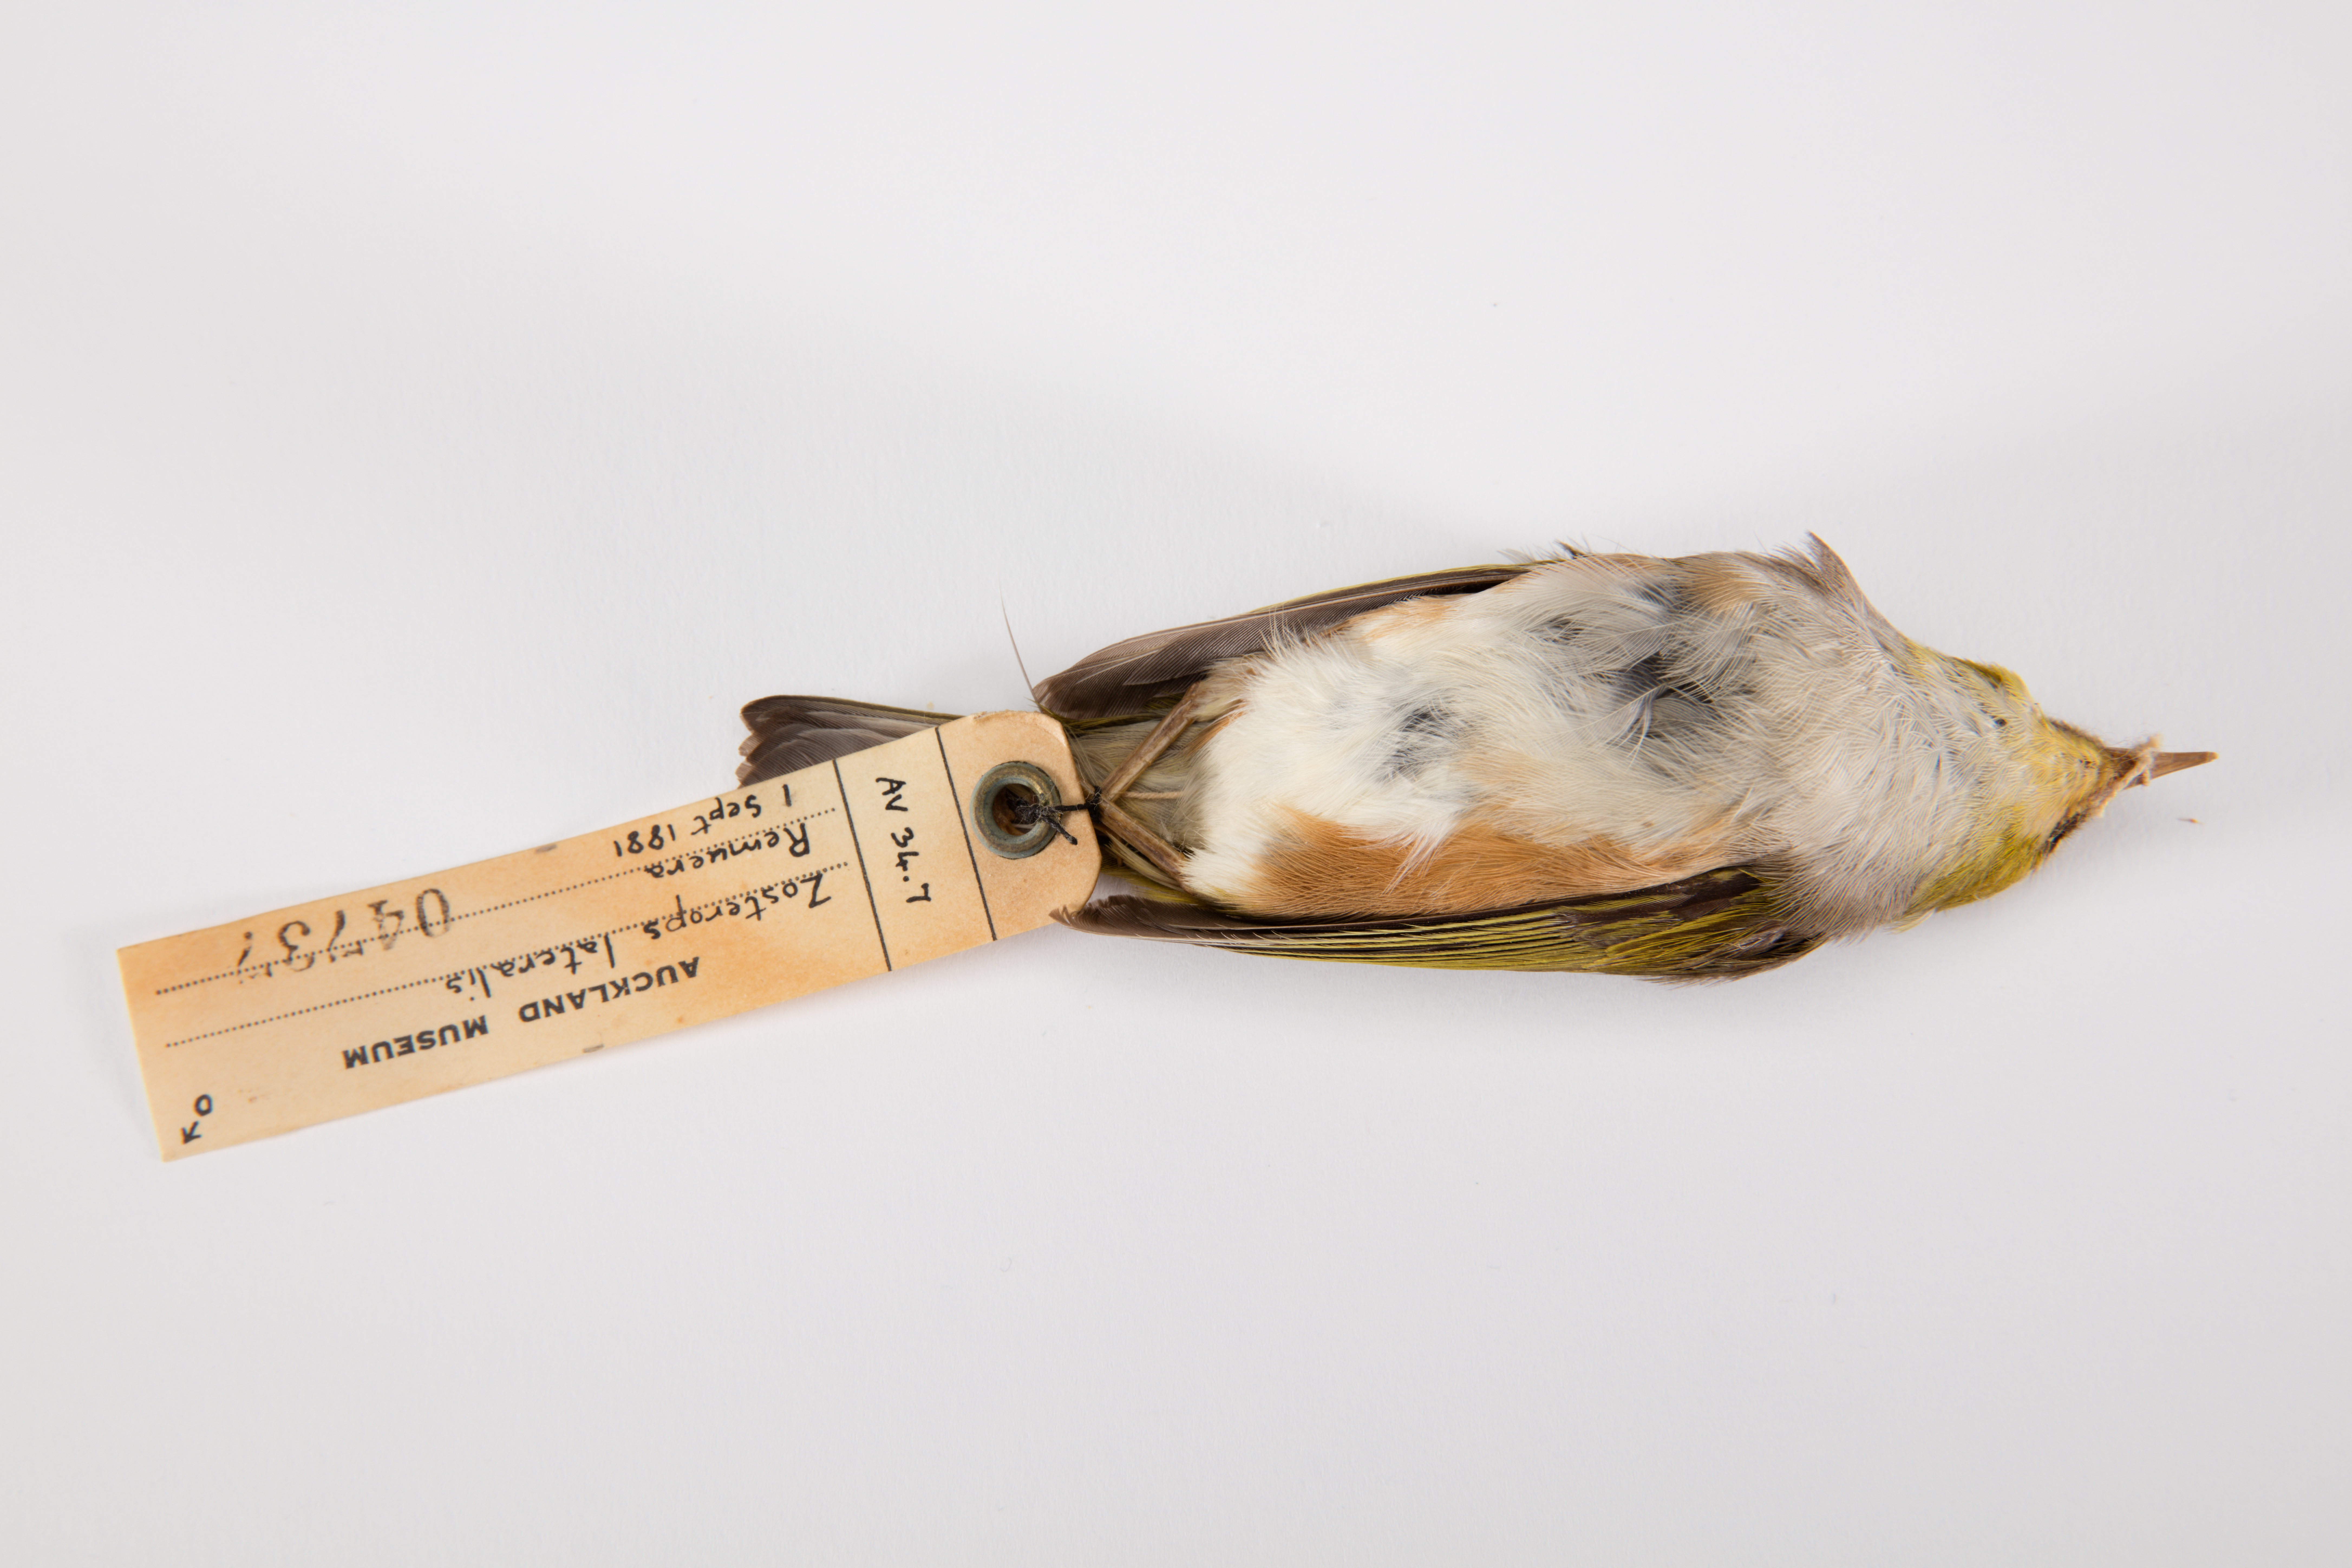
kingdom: Animalia
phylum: Chordata
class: Aves
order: Passeriformes
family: Zosteropidae
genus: Zosterops
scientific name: Zosterops lateralis
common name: Silvereye
